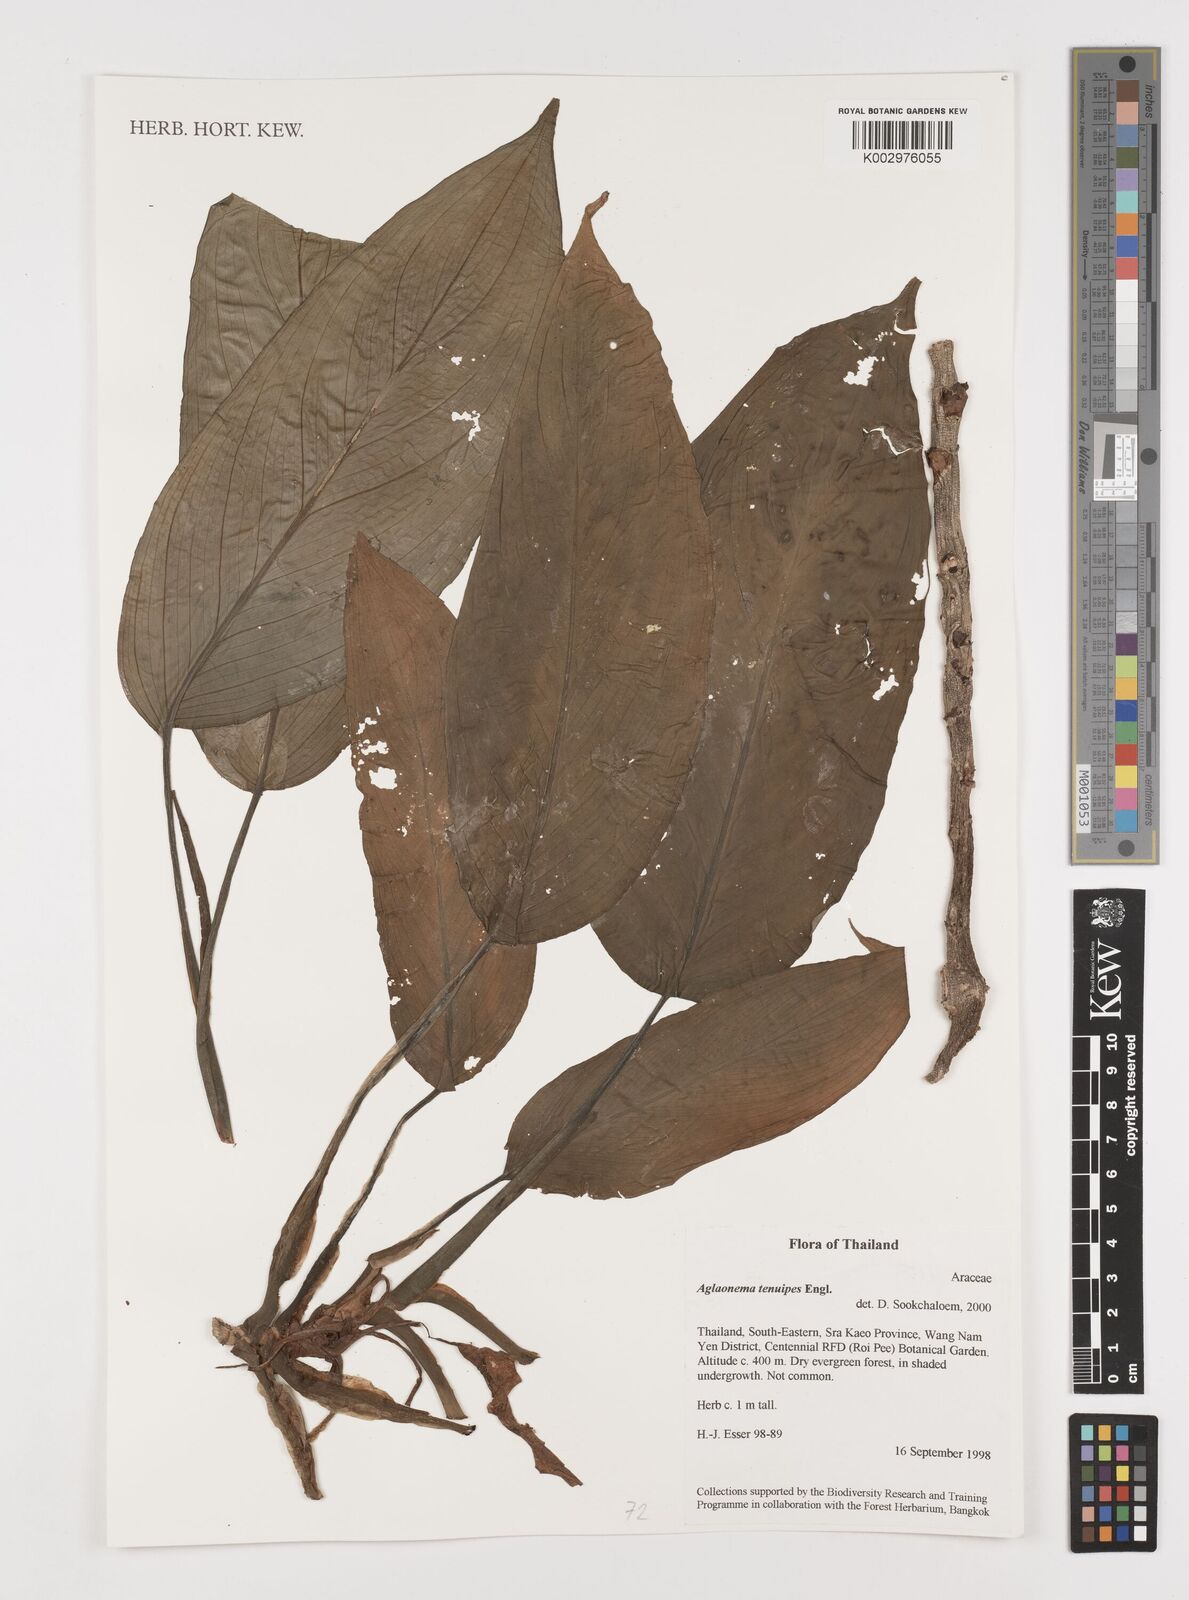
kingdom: Plantae
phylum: Tracheophyta
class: Liliopsida
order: Alismatales
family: Araceae
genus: Aglaonema
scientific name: Aglaonema simplex
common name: Malayan-sword
